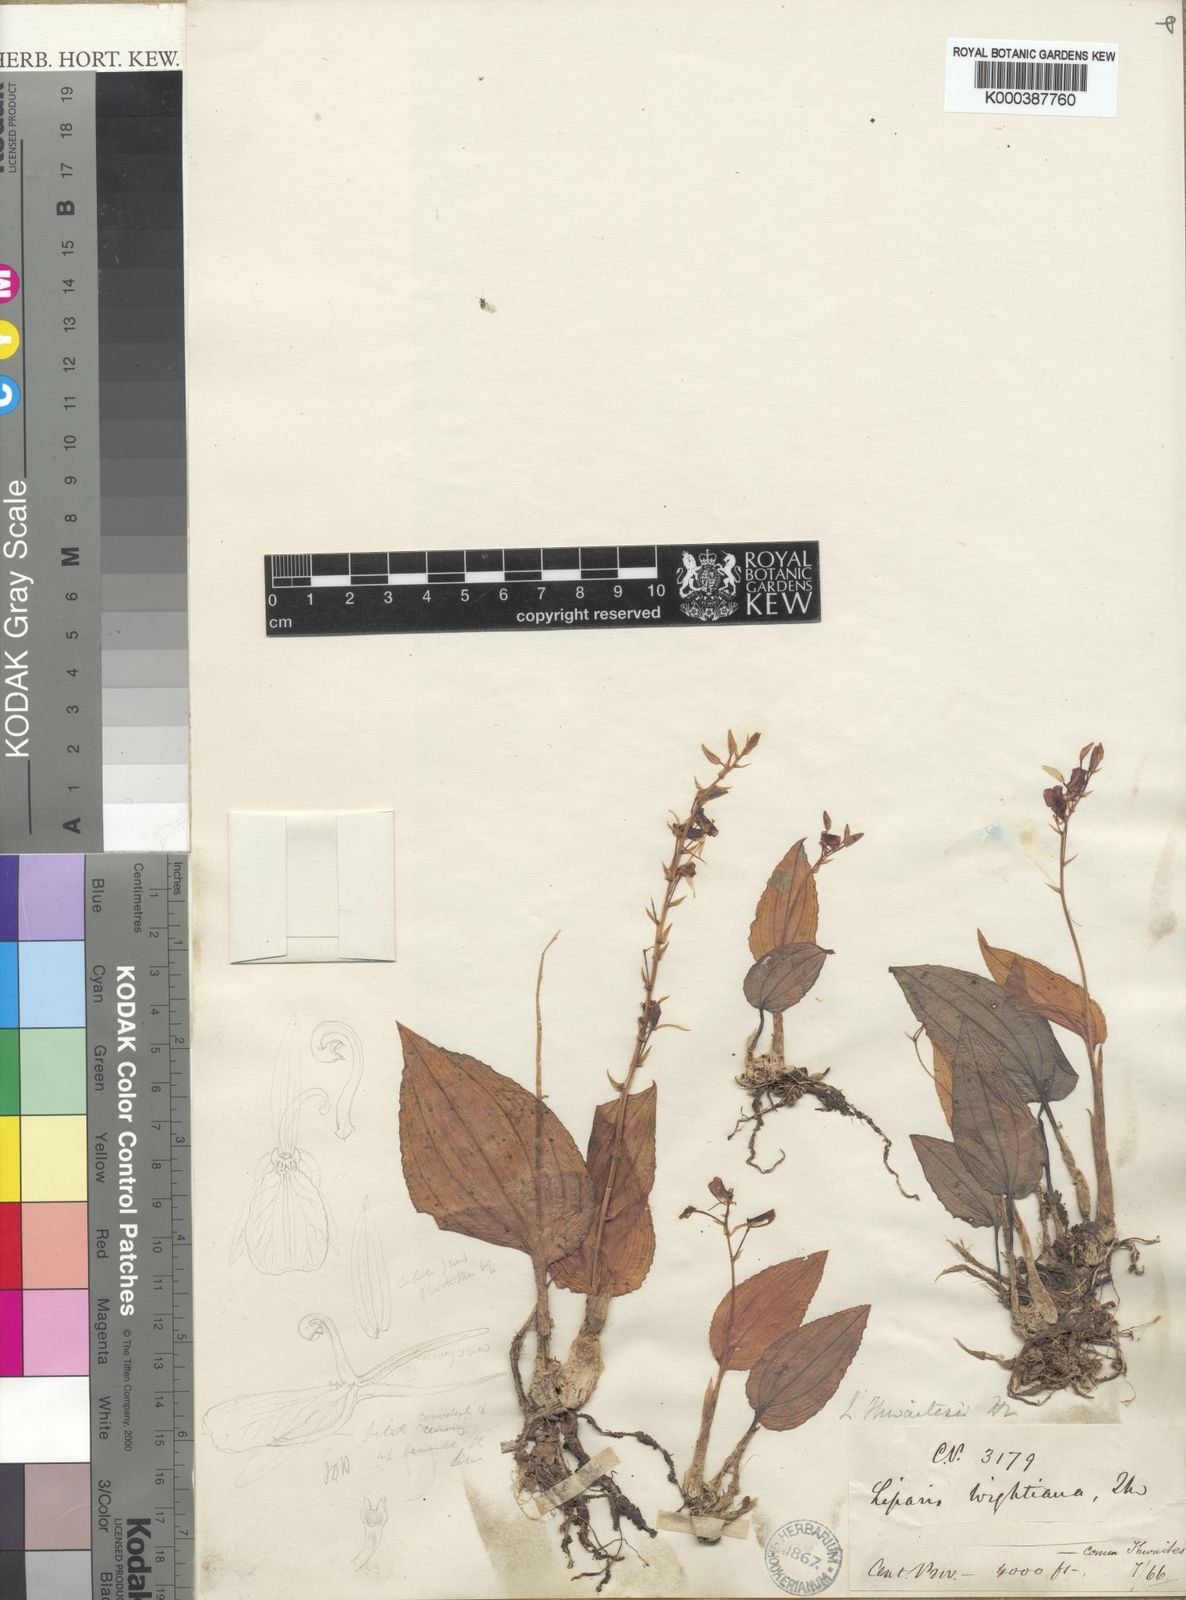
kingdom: Plantae
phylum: Tracheophyta
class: Liliopsida
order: Asparagales
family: Orchidaceae
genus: Liparis
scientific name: Liparis barbata
